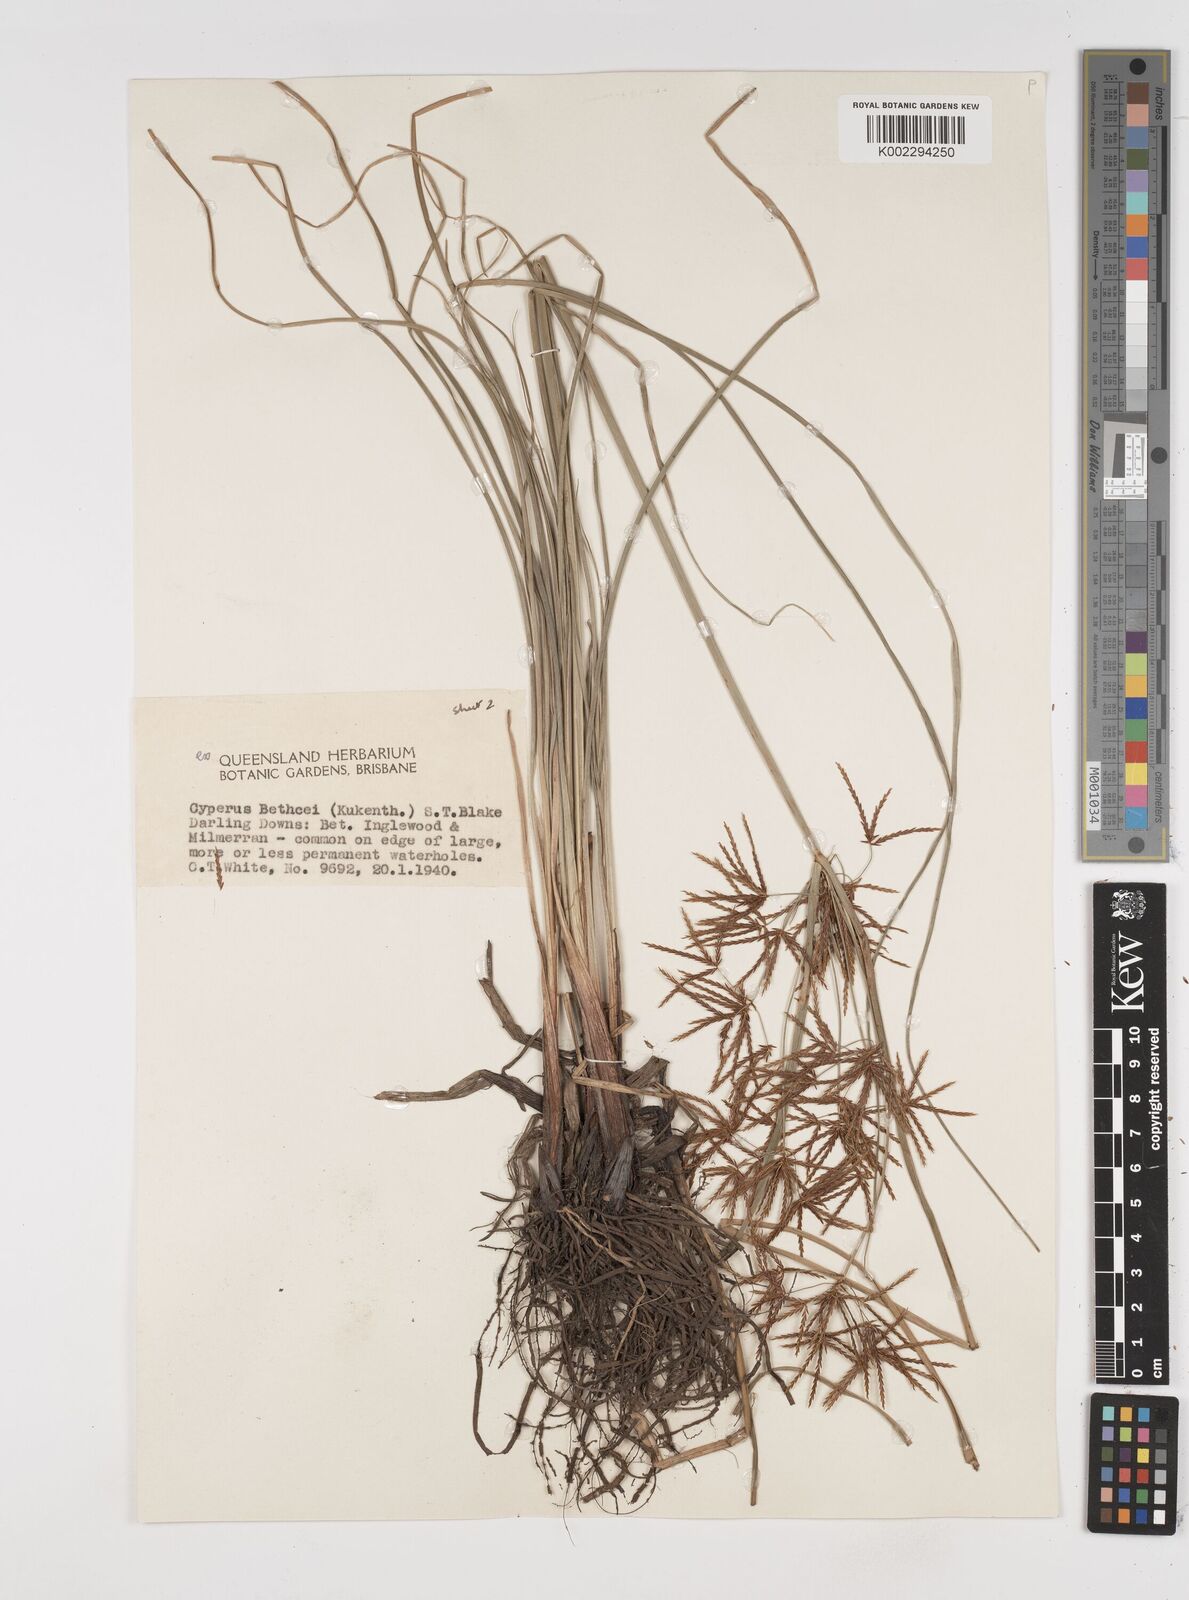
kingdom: Plantae
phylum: Tracheophyta
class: Liliopsida
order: Poales
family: Cyperaceae
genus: Cyperus
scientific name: Cyperus betchei
